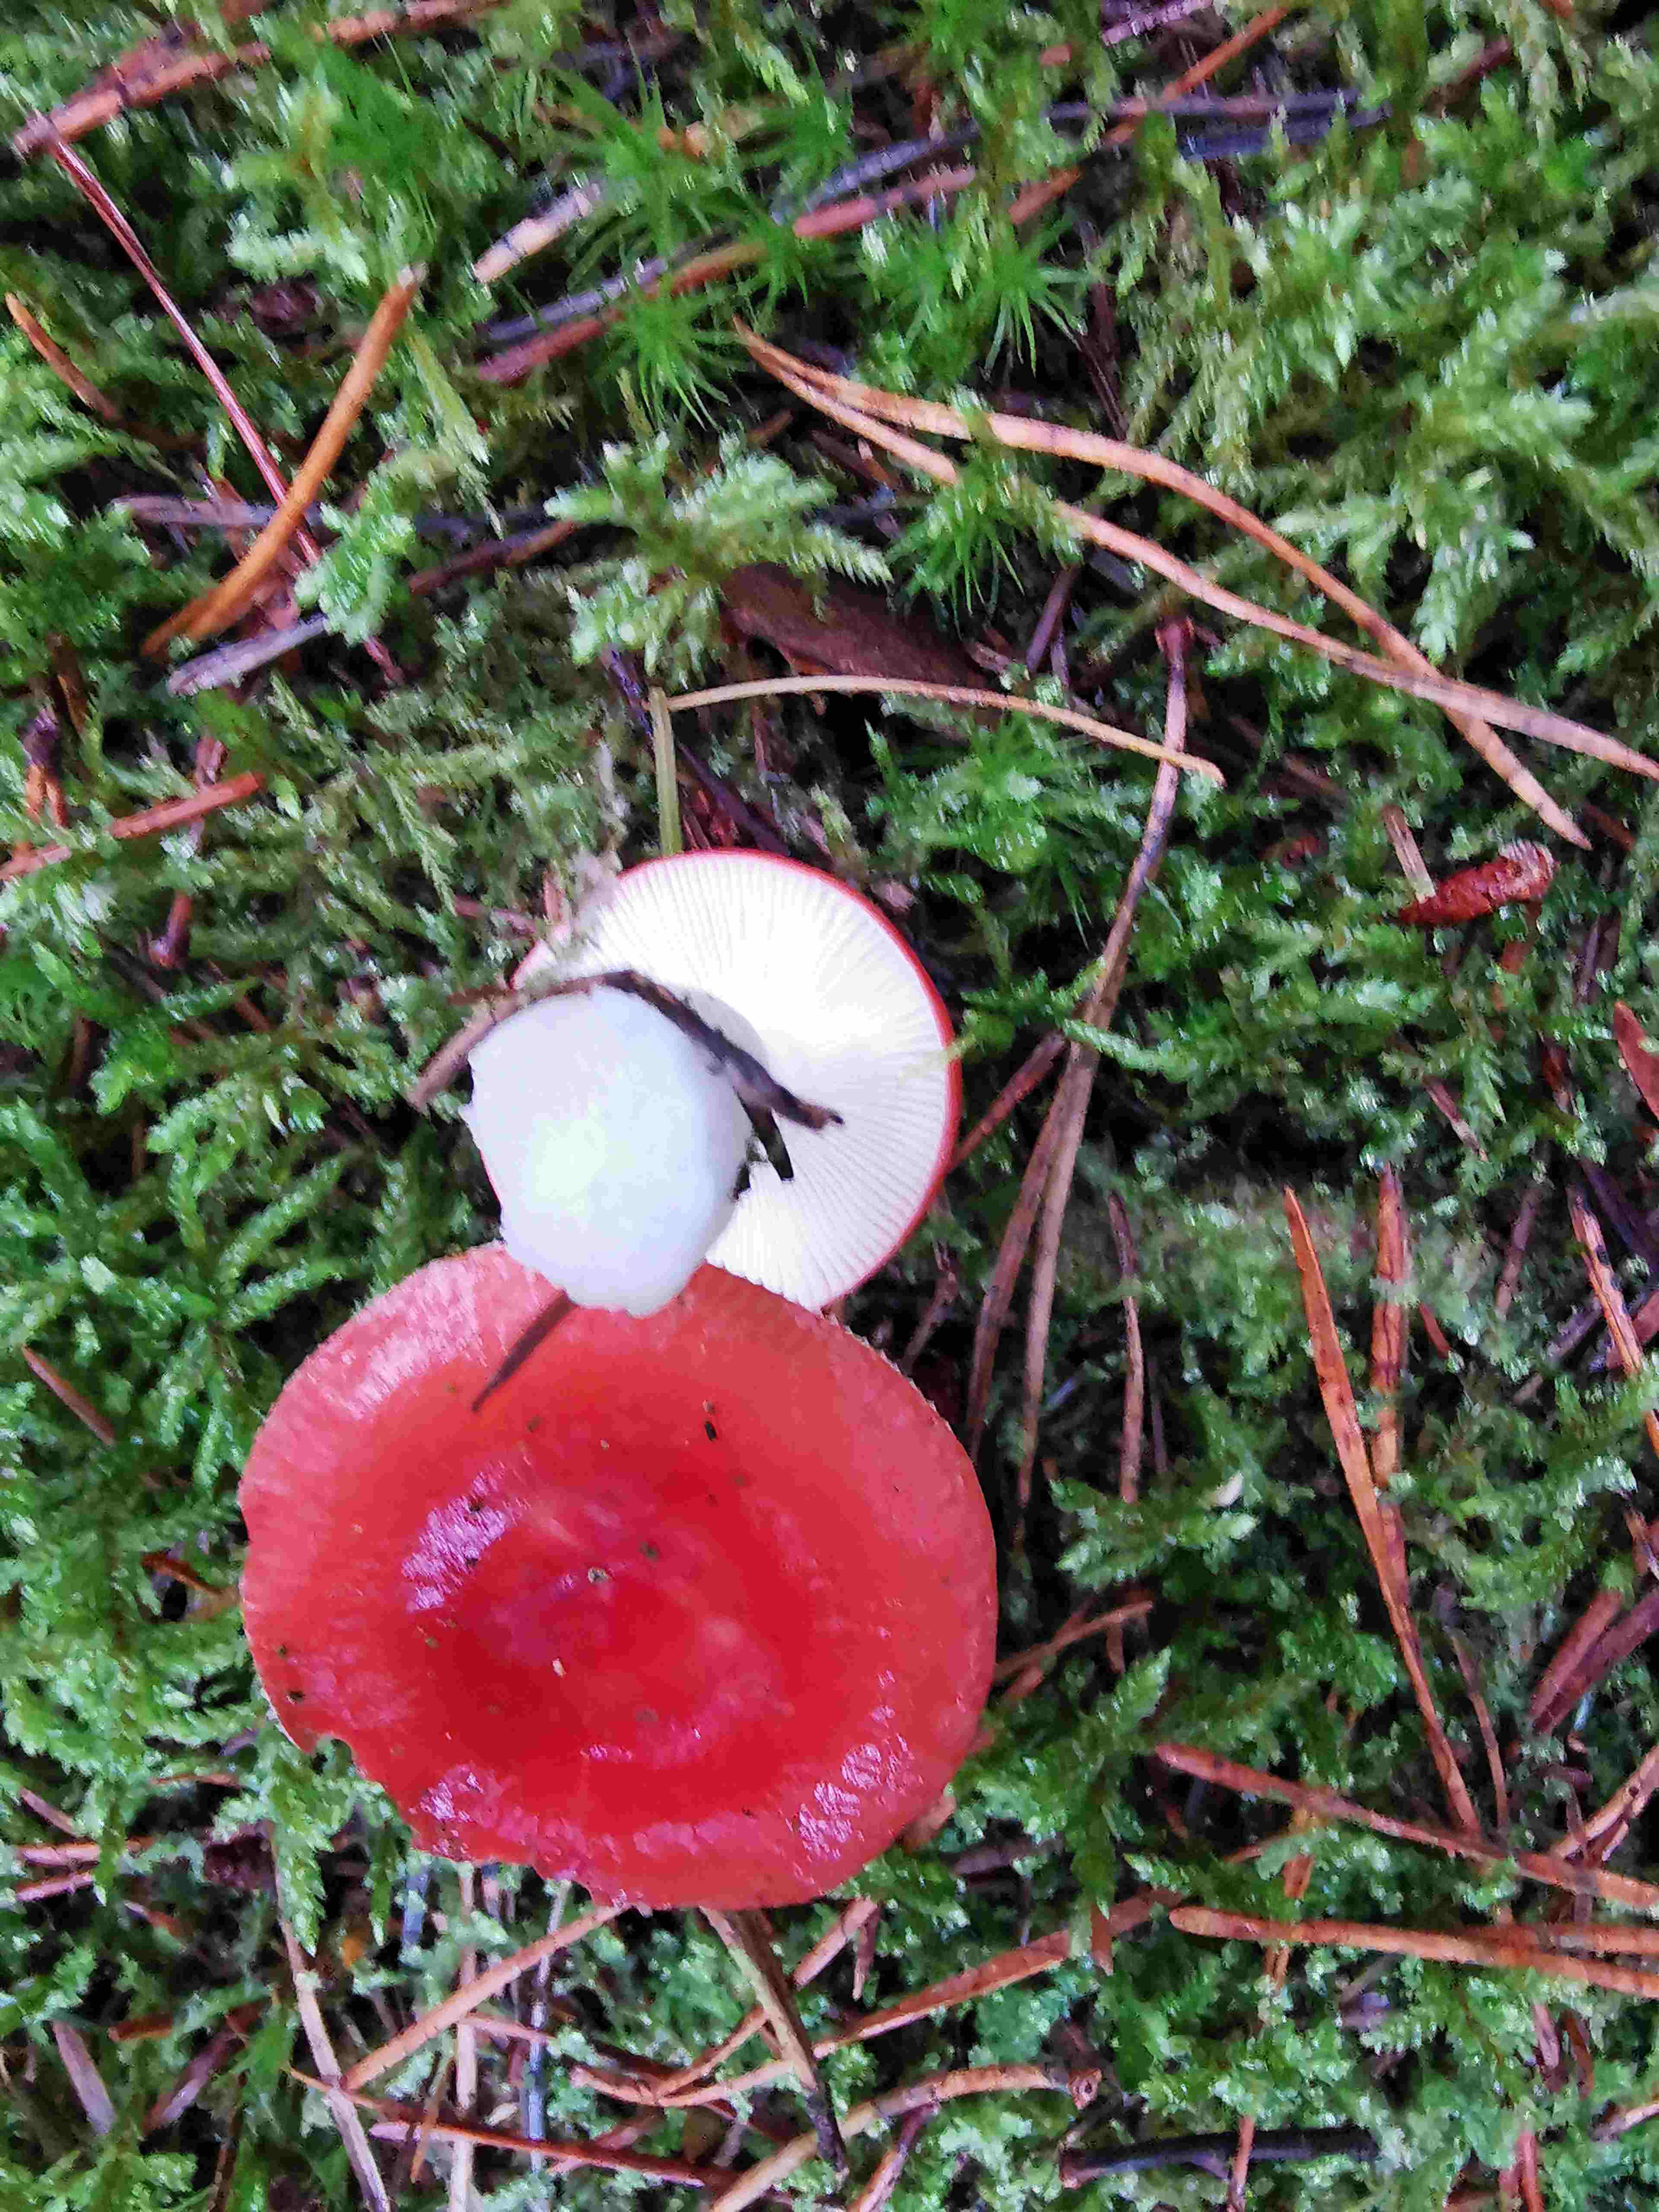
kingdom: Fungi
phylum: Basidiomycota
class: Agaricomycetes
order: Russulales
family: Russulaceae
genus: Russula
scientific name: Russula
